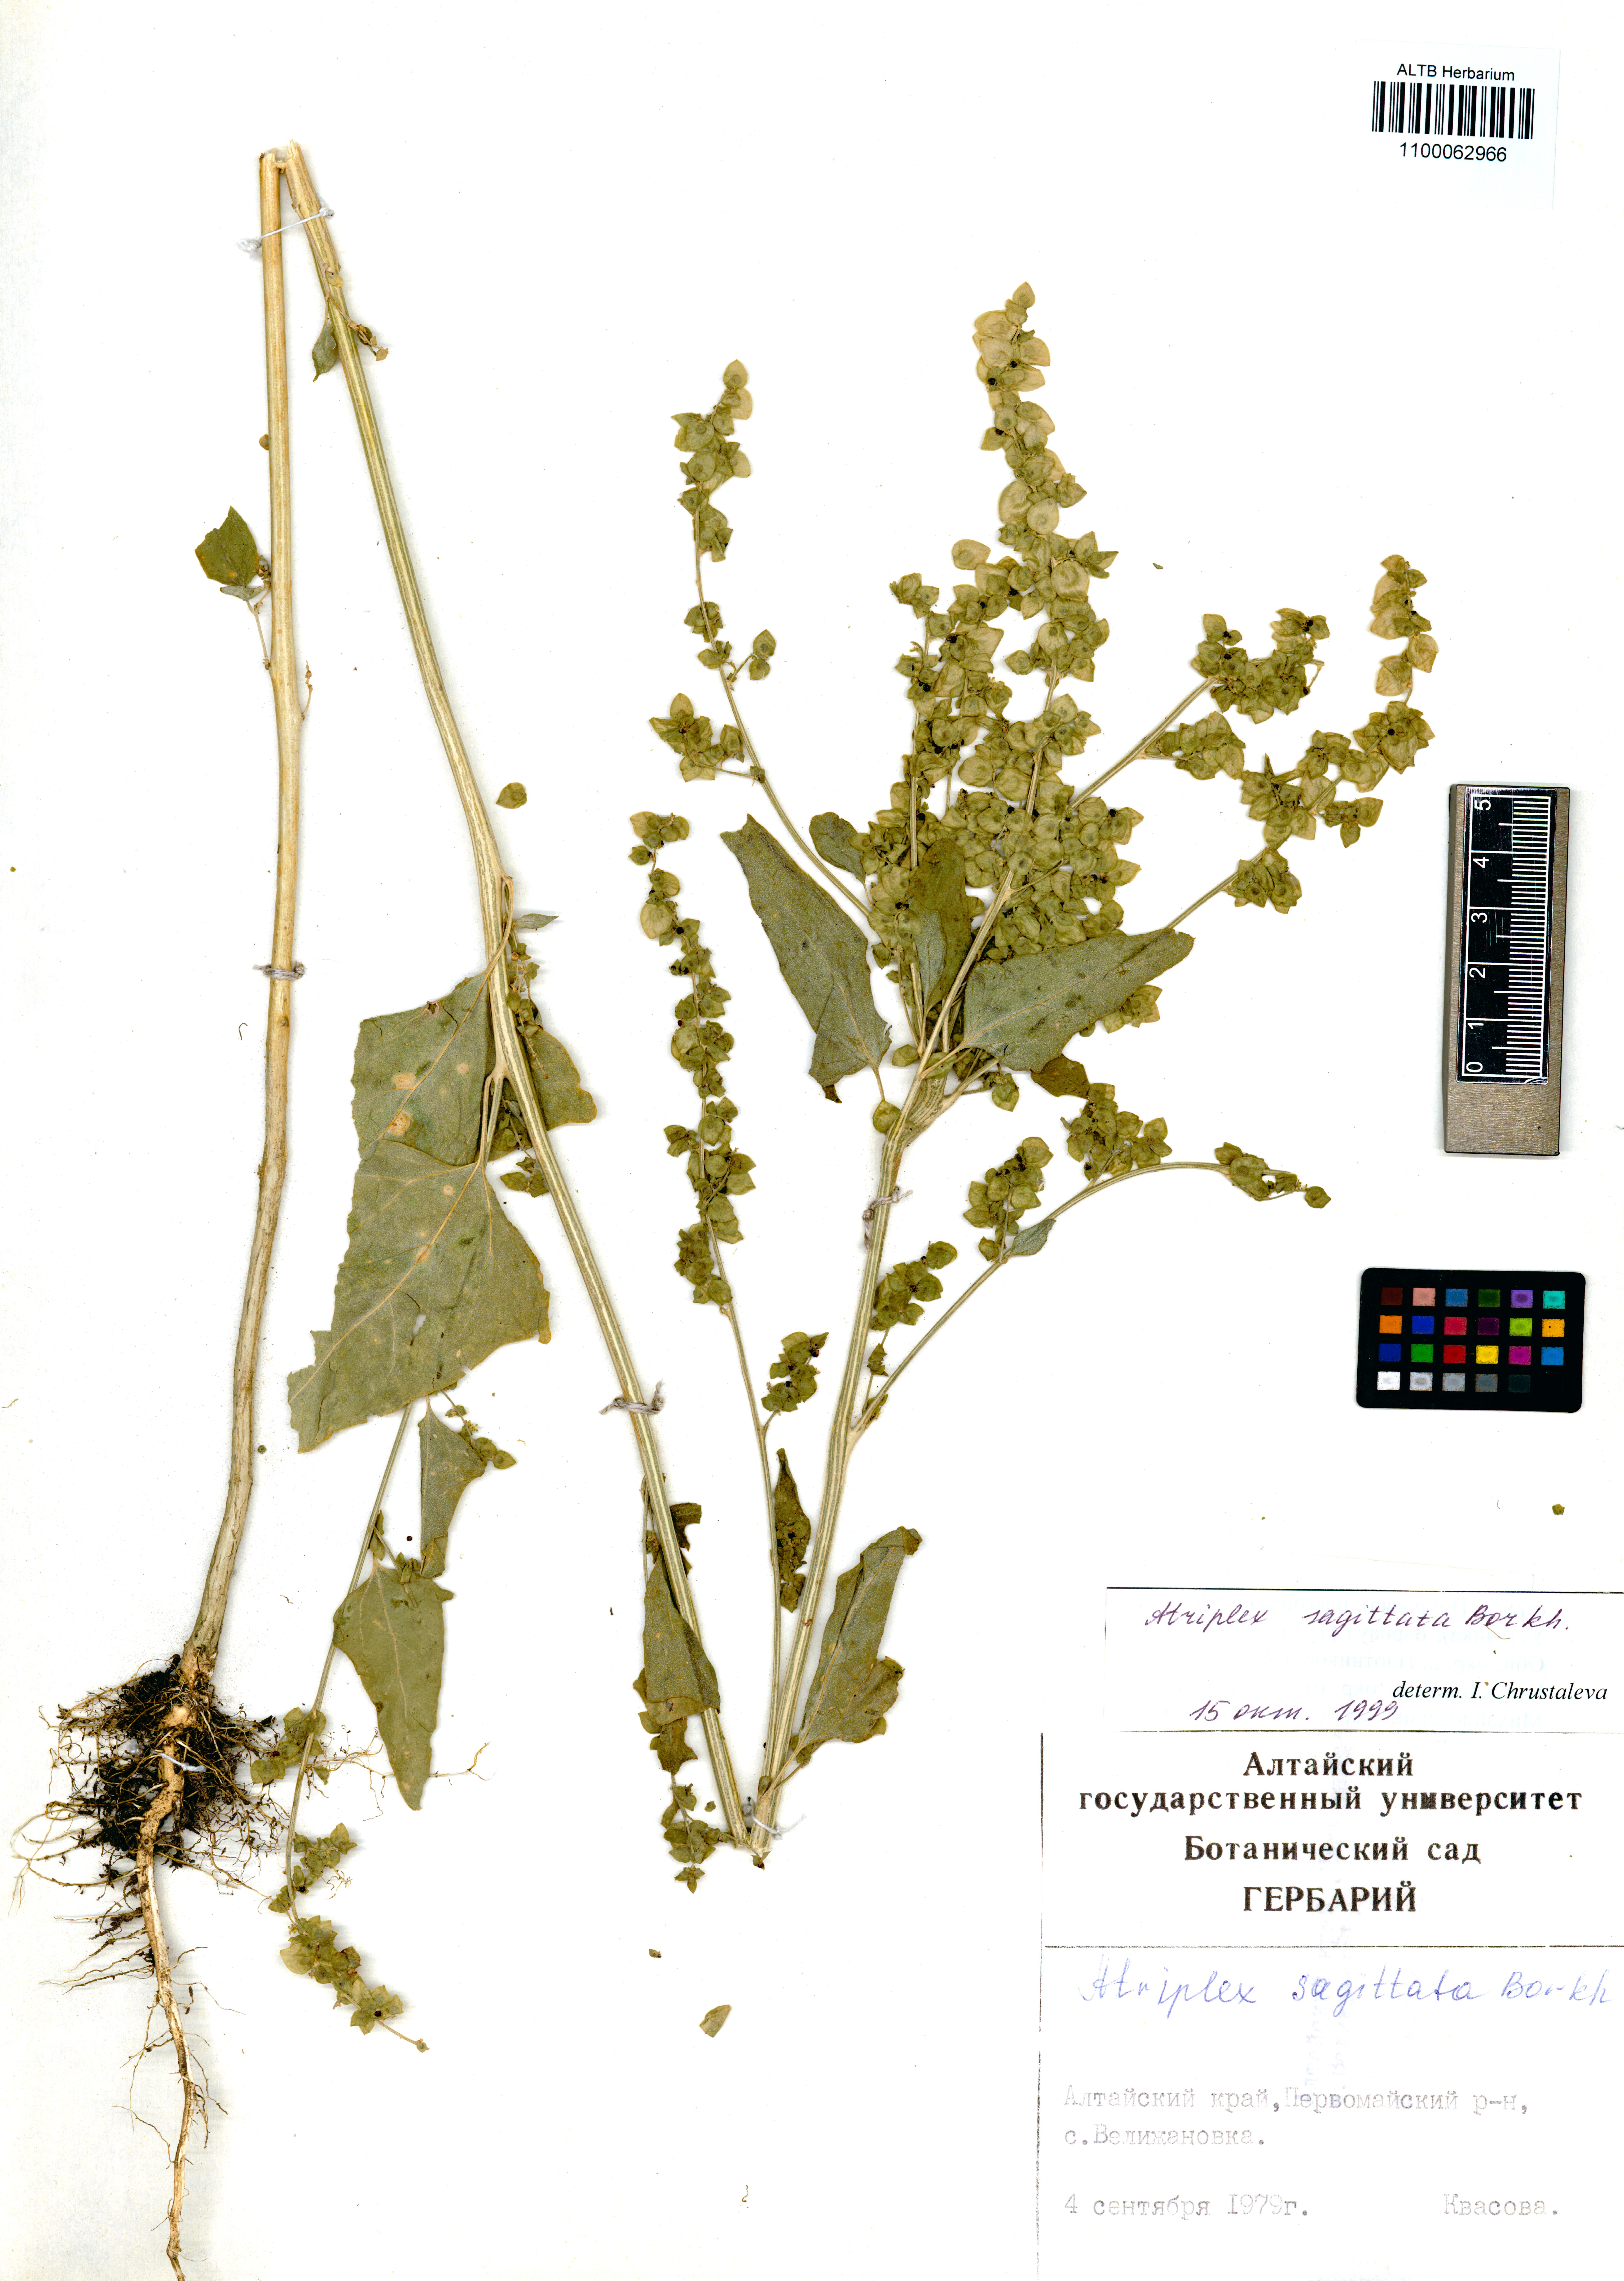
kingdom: Plantae
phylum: Tracheophyta
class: Magnoliopsida
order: Caryophyllales
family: Amaranthaceae
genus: Atriplex
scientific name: Atriplex sagittata
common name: Purple orache
